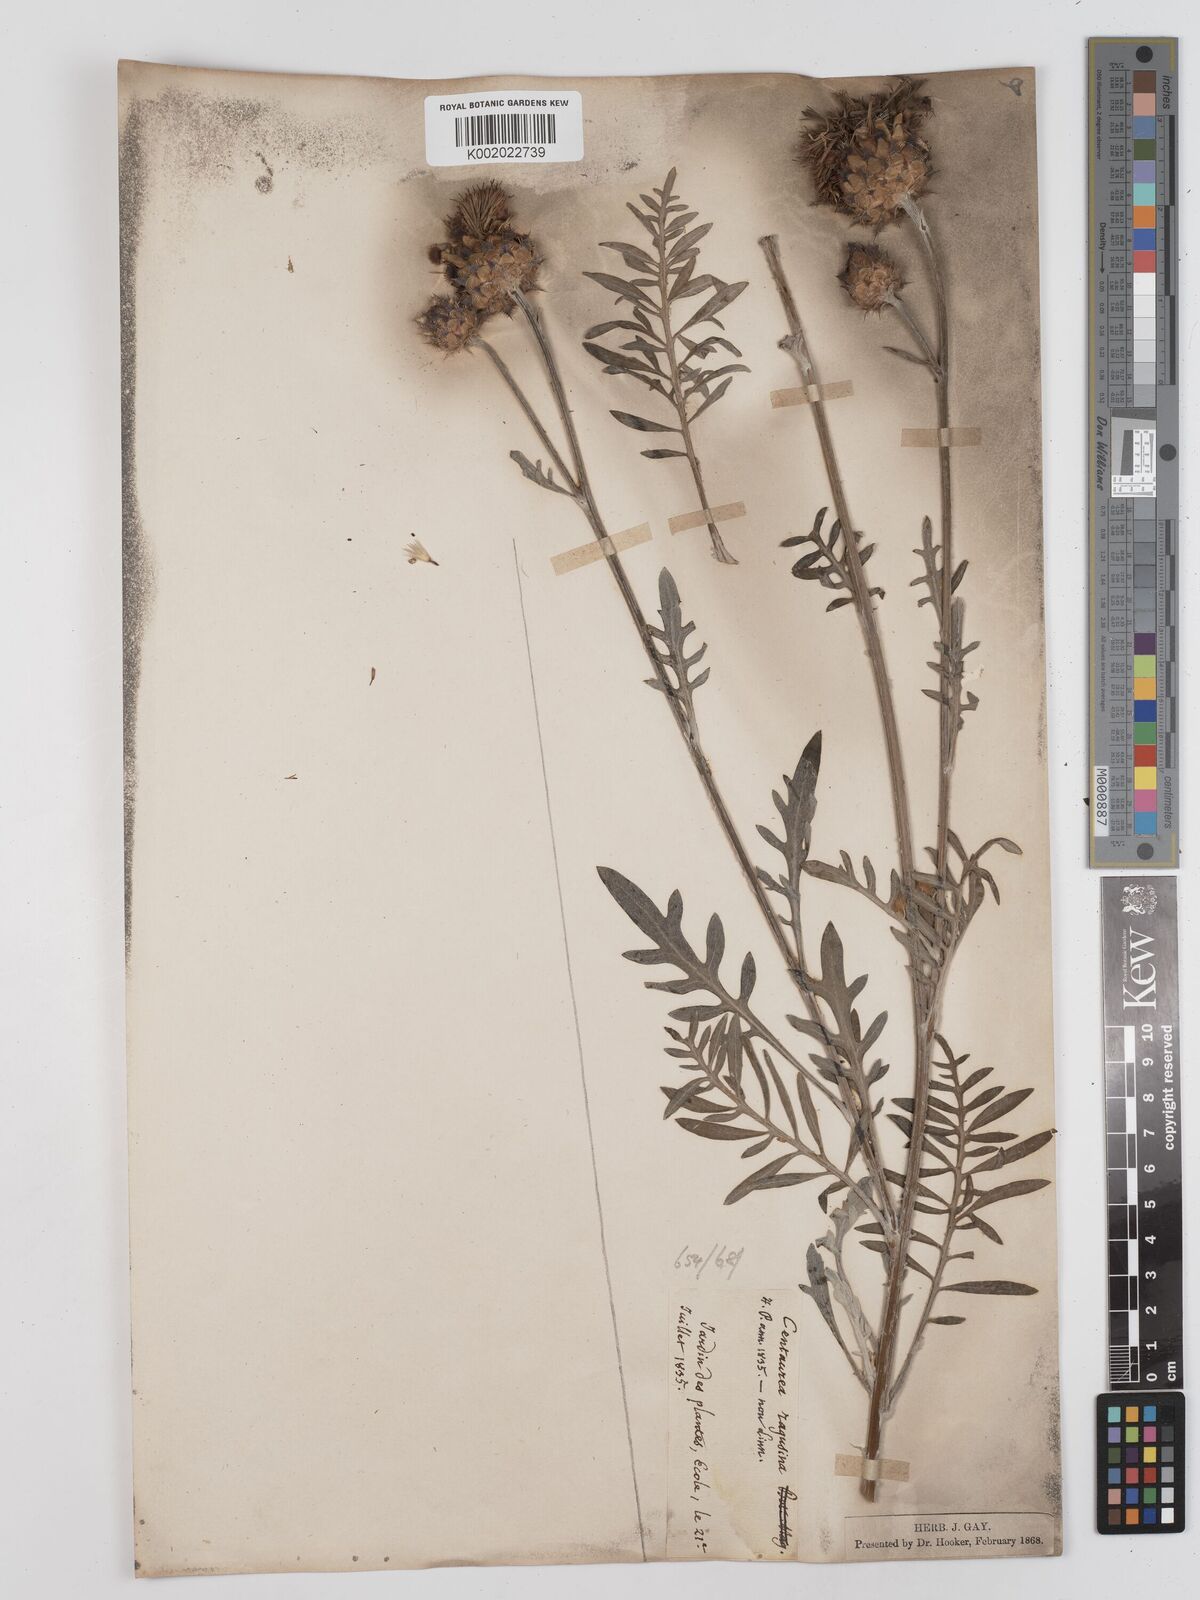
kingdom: Plantae
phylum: Tracheophyta
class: Magnoliopsida
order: Asterales
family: Asteraceae
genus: Centaurea
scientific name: Centaurea
